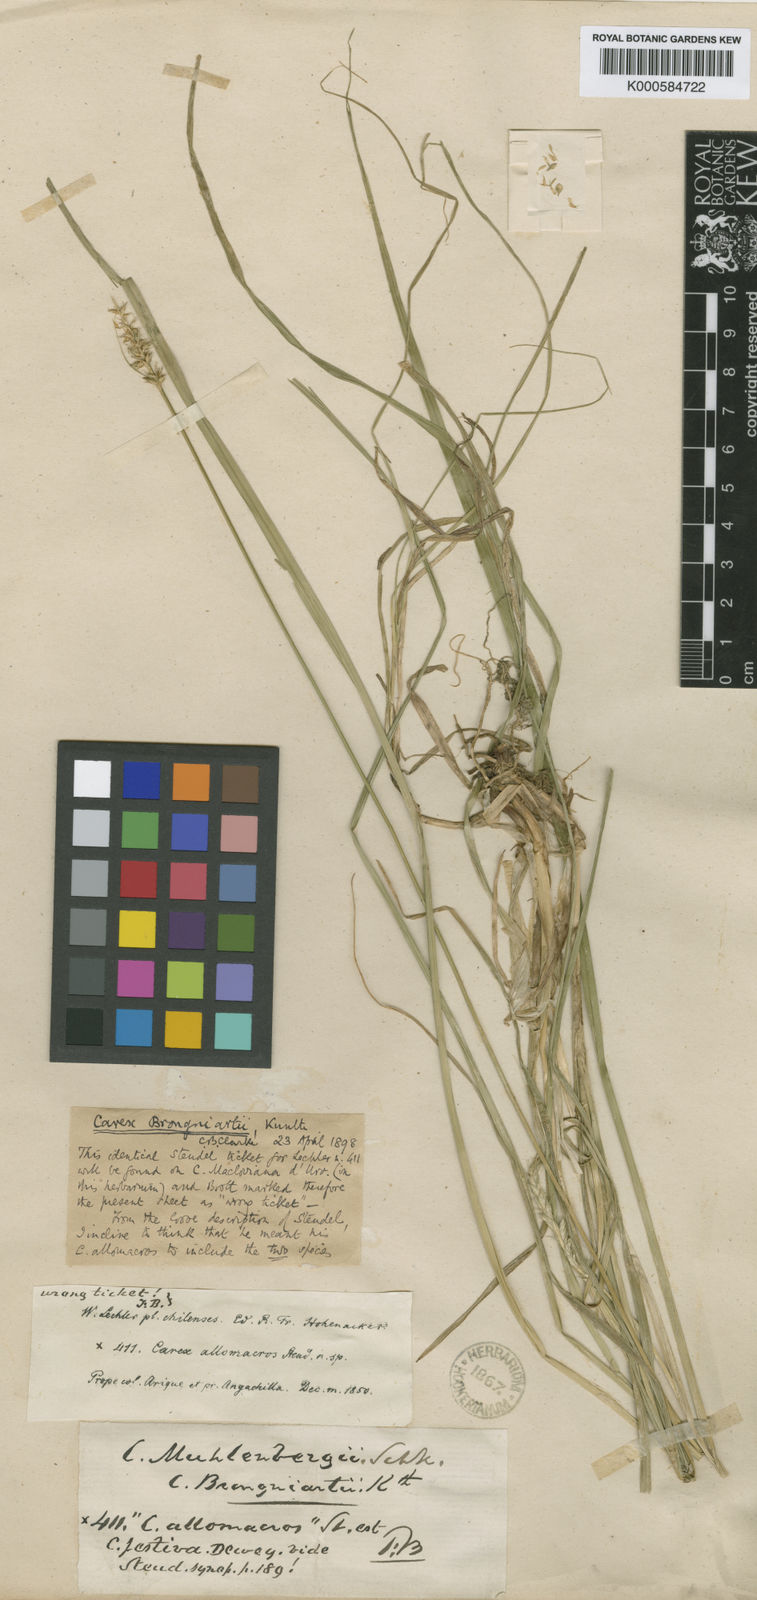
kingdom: Plantae
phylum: Tracheophyta
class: Liliopsida
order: Poales
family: Cyperaceae
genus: Carex
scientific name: Carex brongniartii
